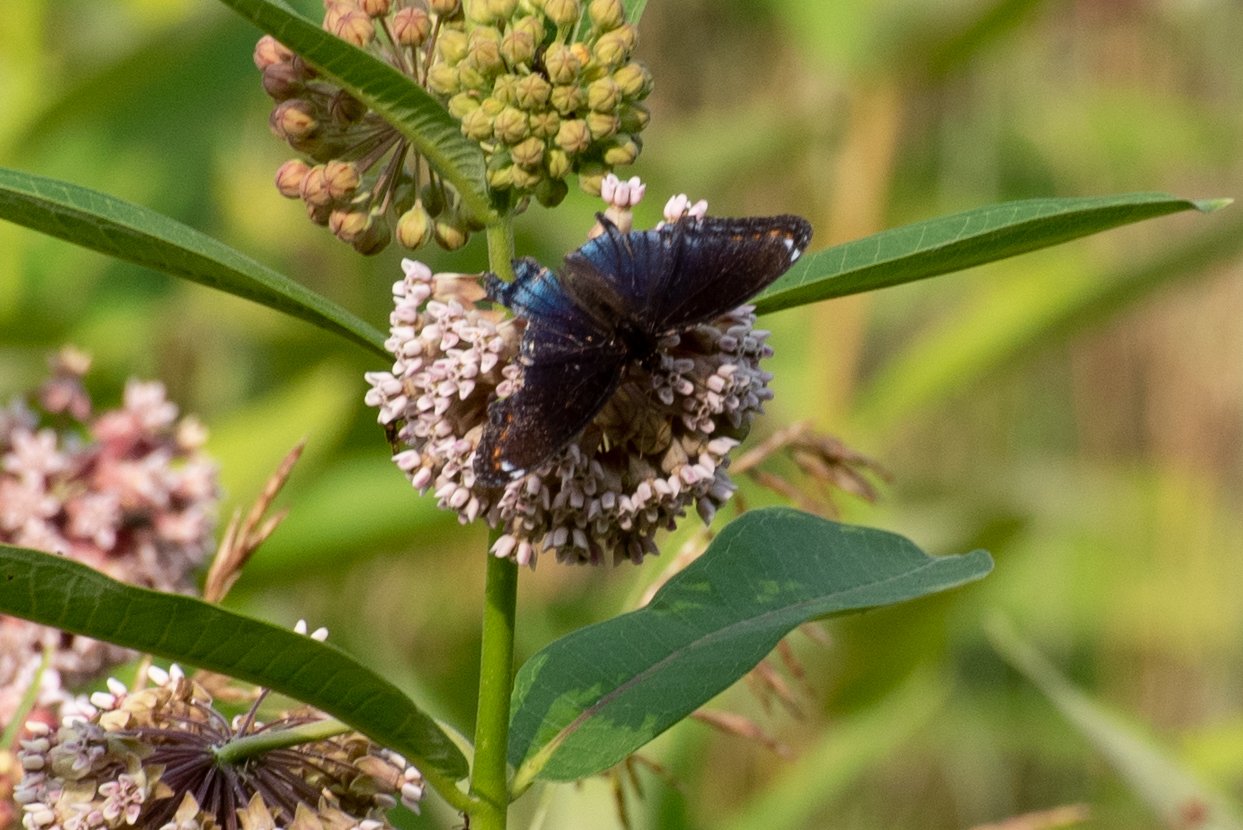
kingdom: Animalia
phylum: Arthropoda
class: Insecta
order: Lepidoptera
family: Nymphalidae
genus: Limenitis
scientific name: Limenitis astyanax
